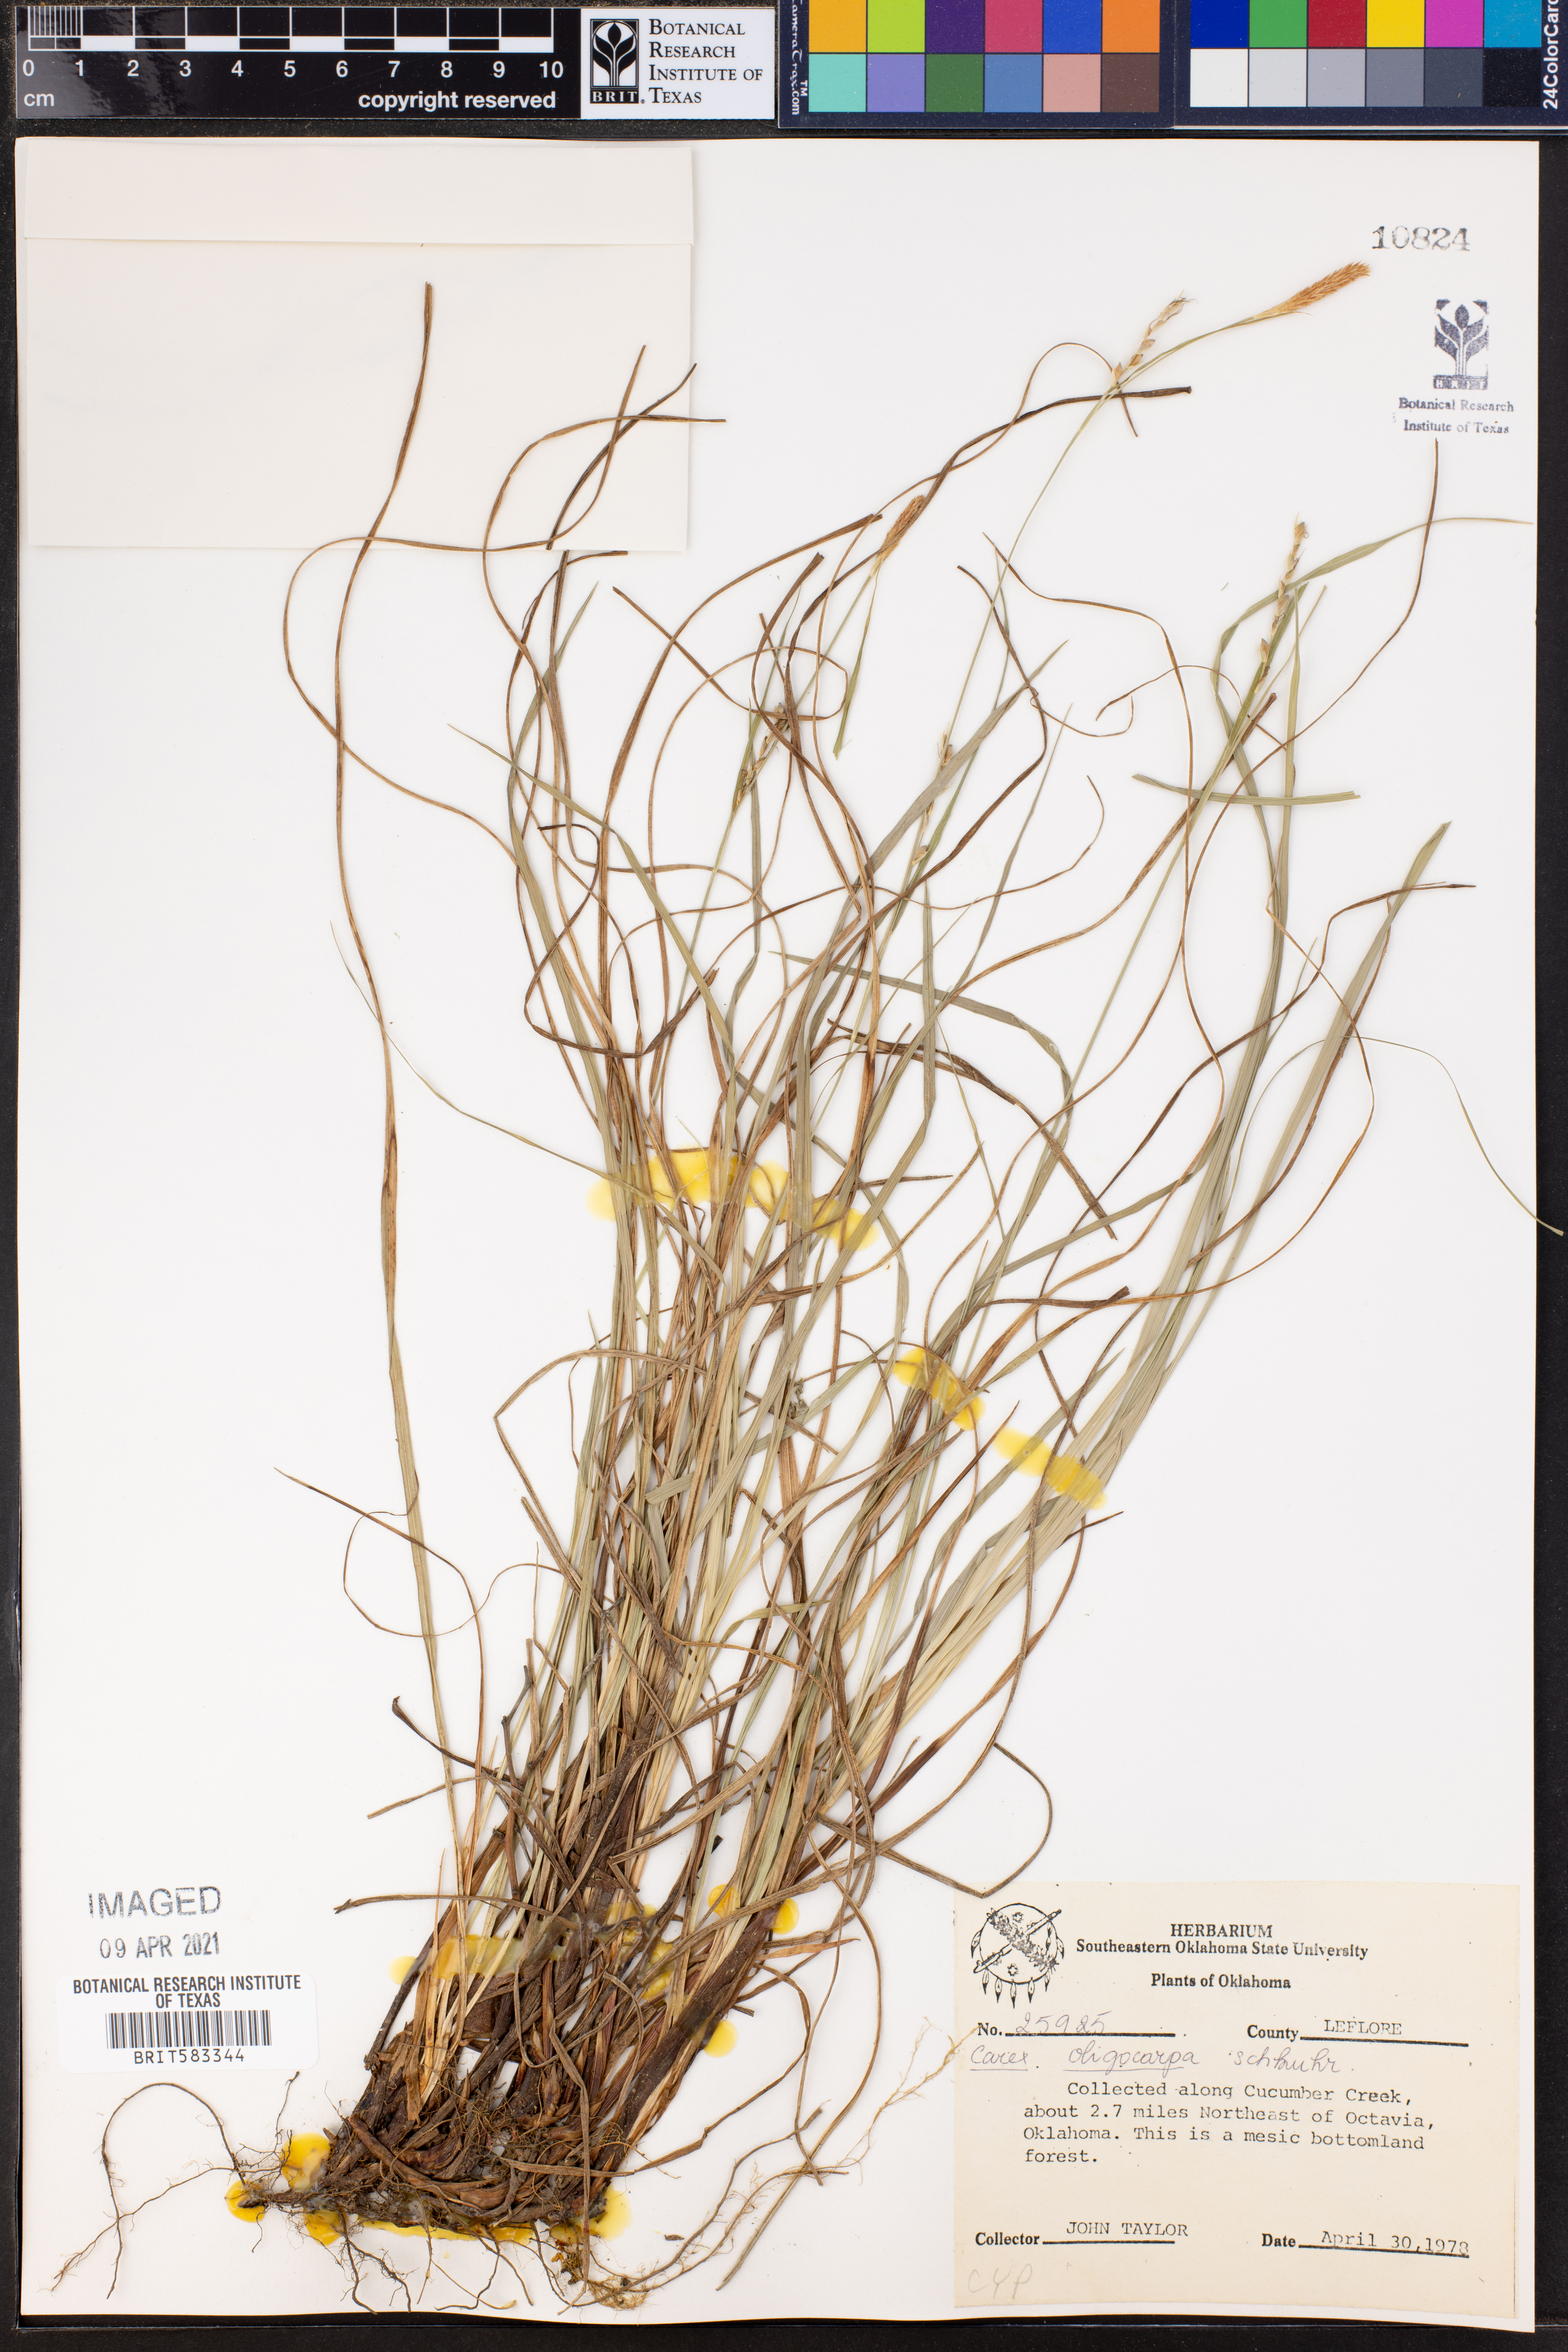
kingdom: Plantae
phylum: Tracheophyta
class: Liliopsida
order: Poales
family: Cyperaceae
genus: Carex
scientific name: Carex oligocarpa
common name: Eastern few-fruited sedge
